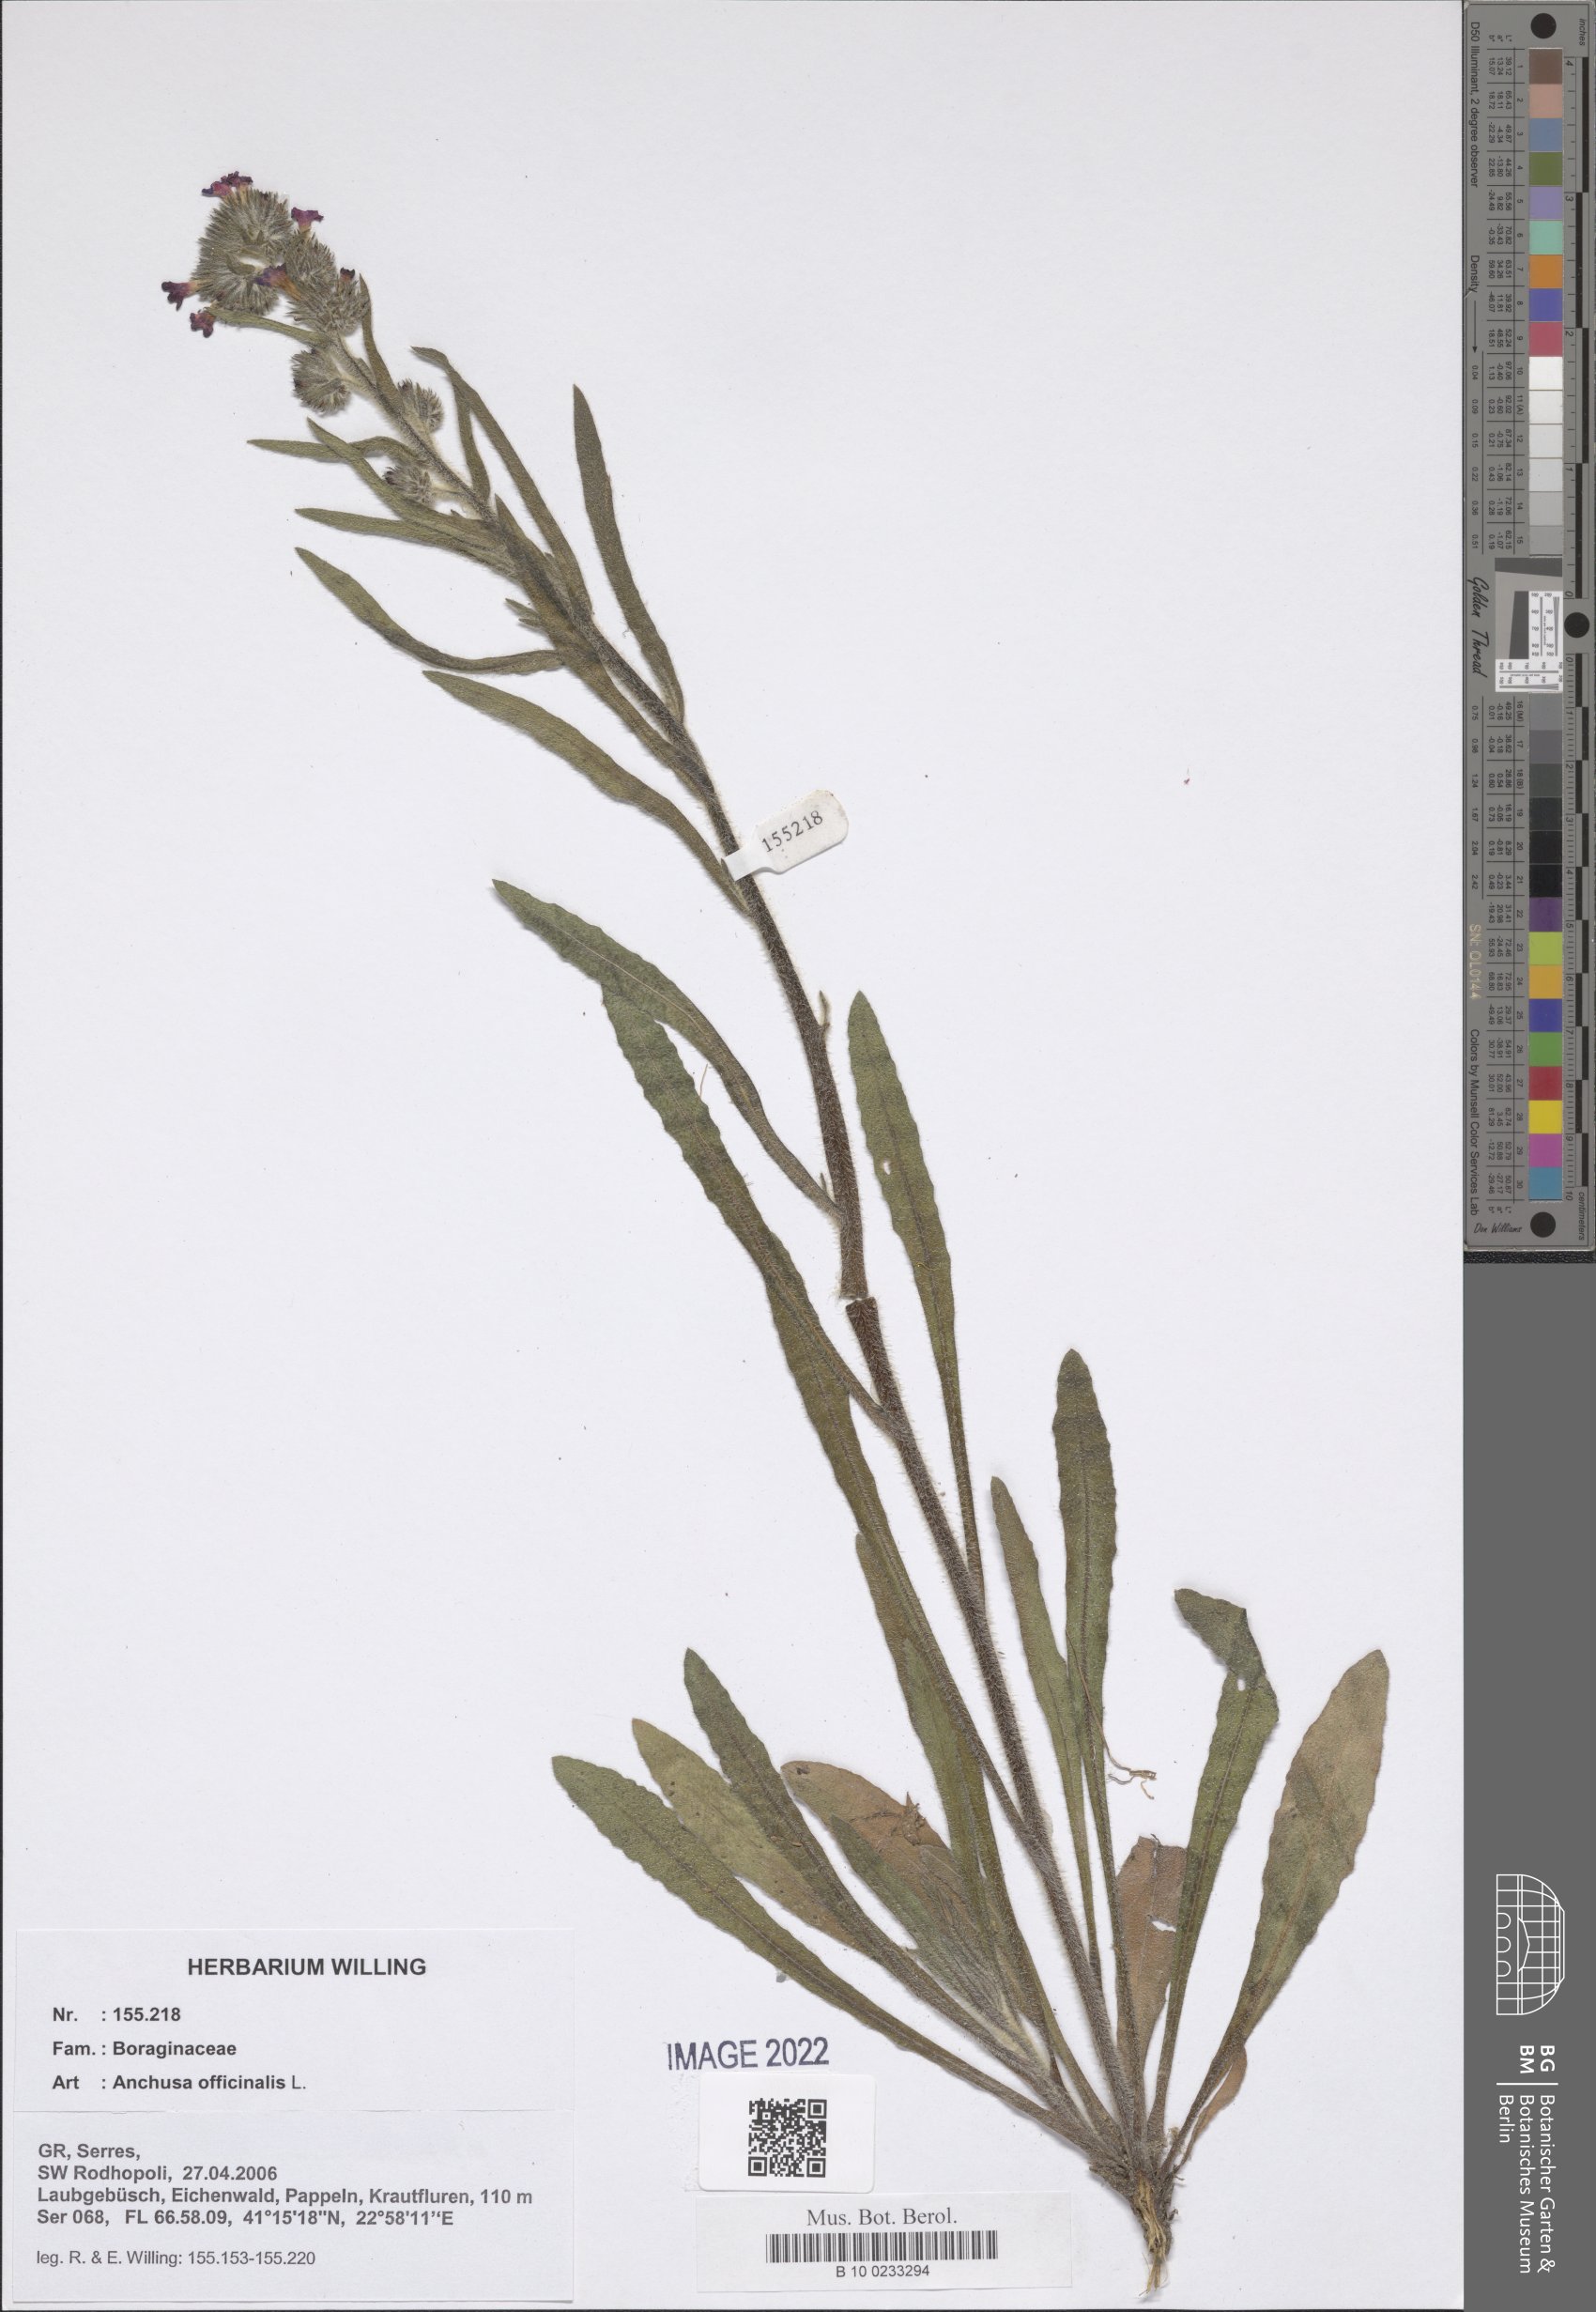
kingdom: Plantae
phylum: Tracheophyta
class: Magnoliopsida
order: Boraginales
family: Boraginaceae
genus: Anchusa
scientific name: Anchusa officinalis
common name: Alkanet
